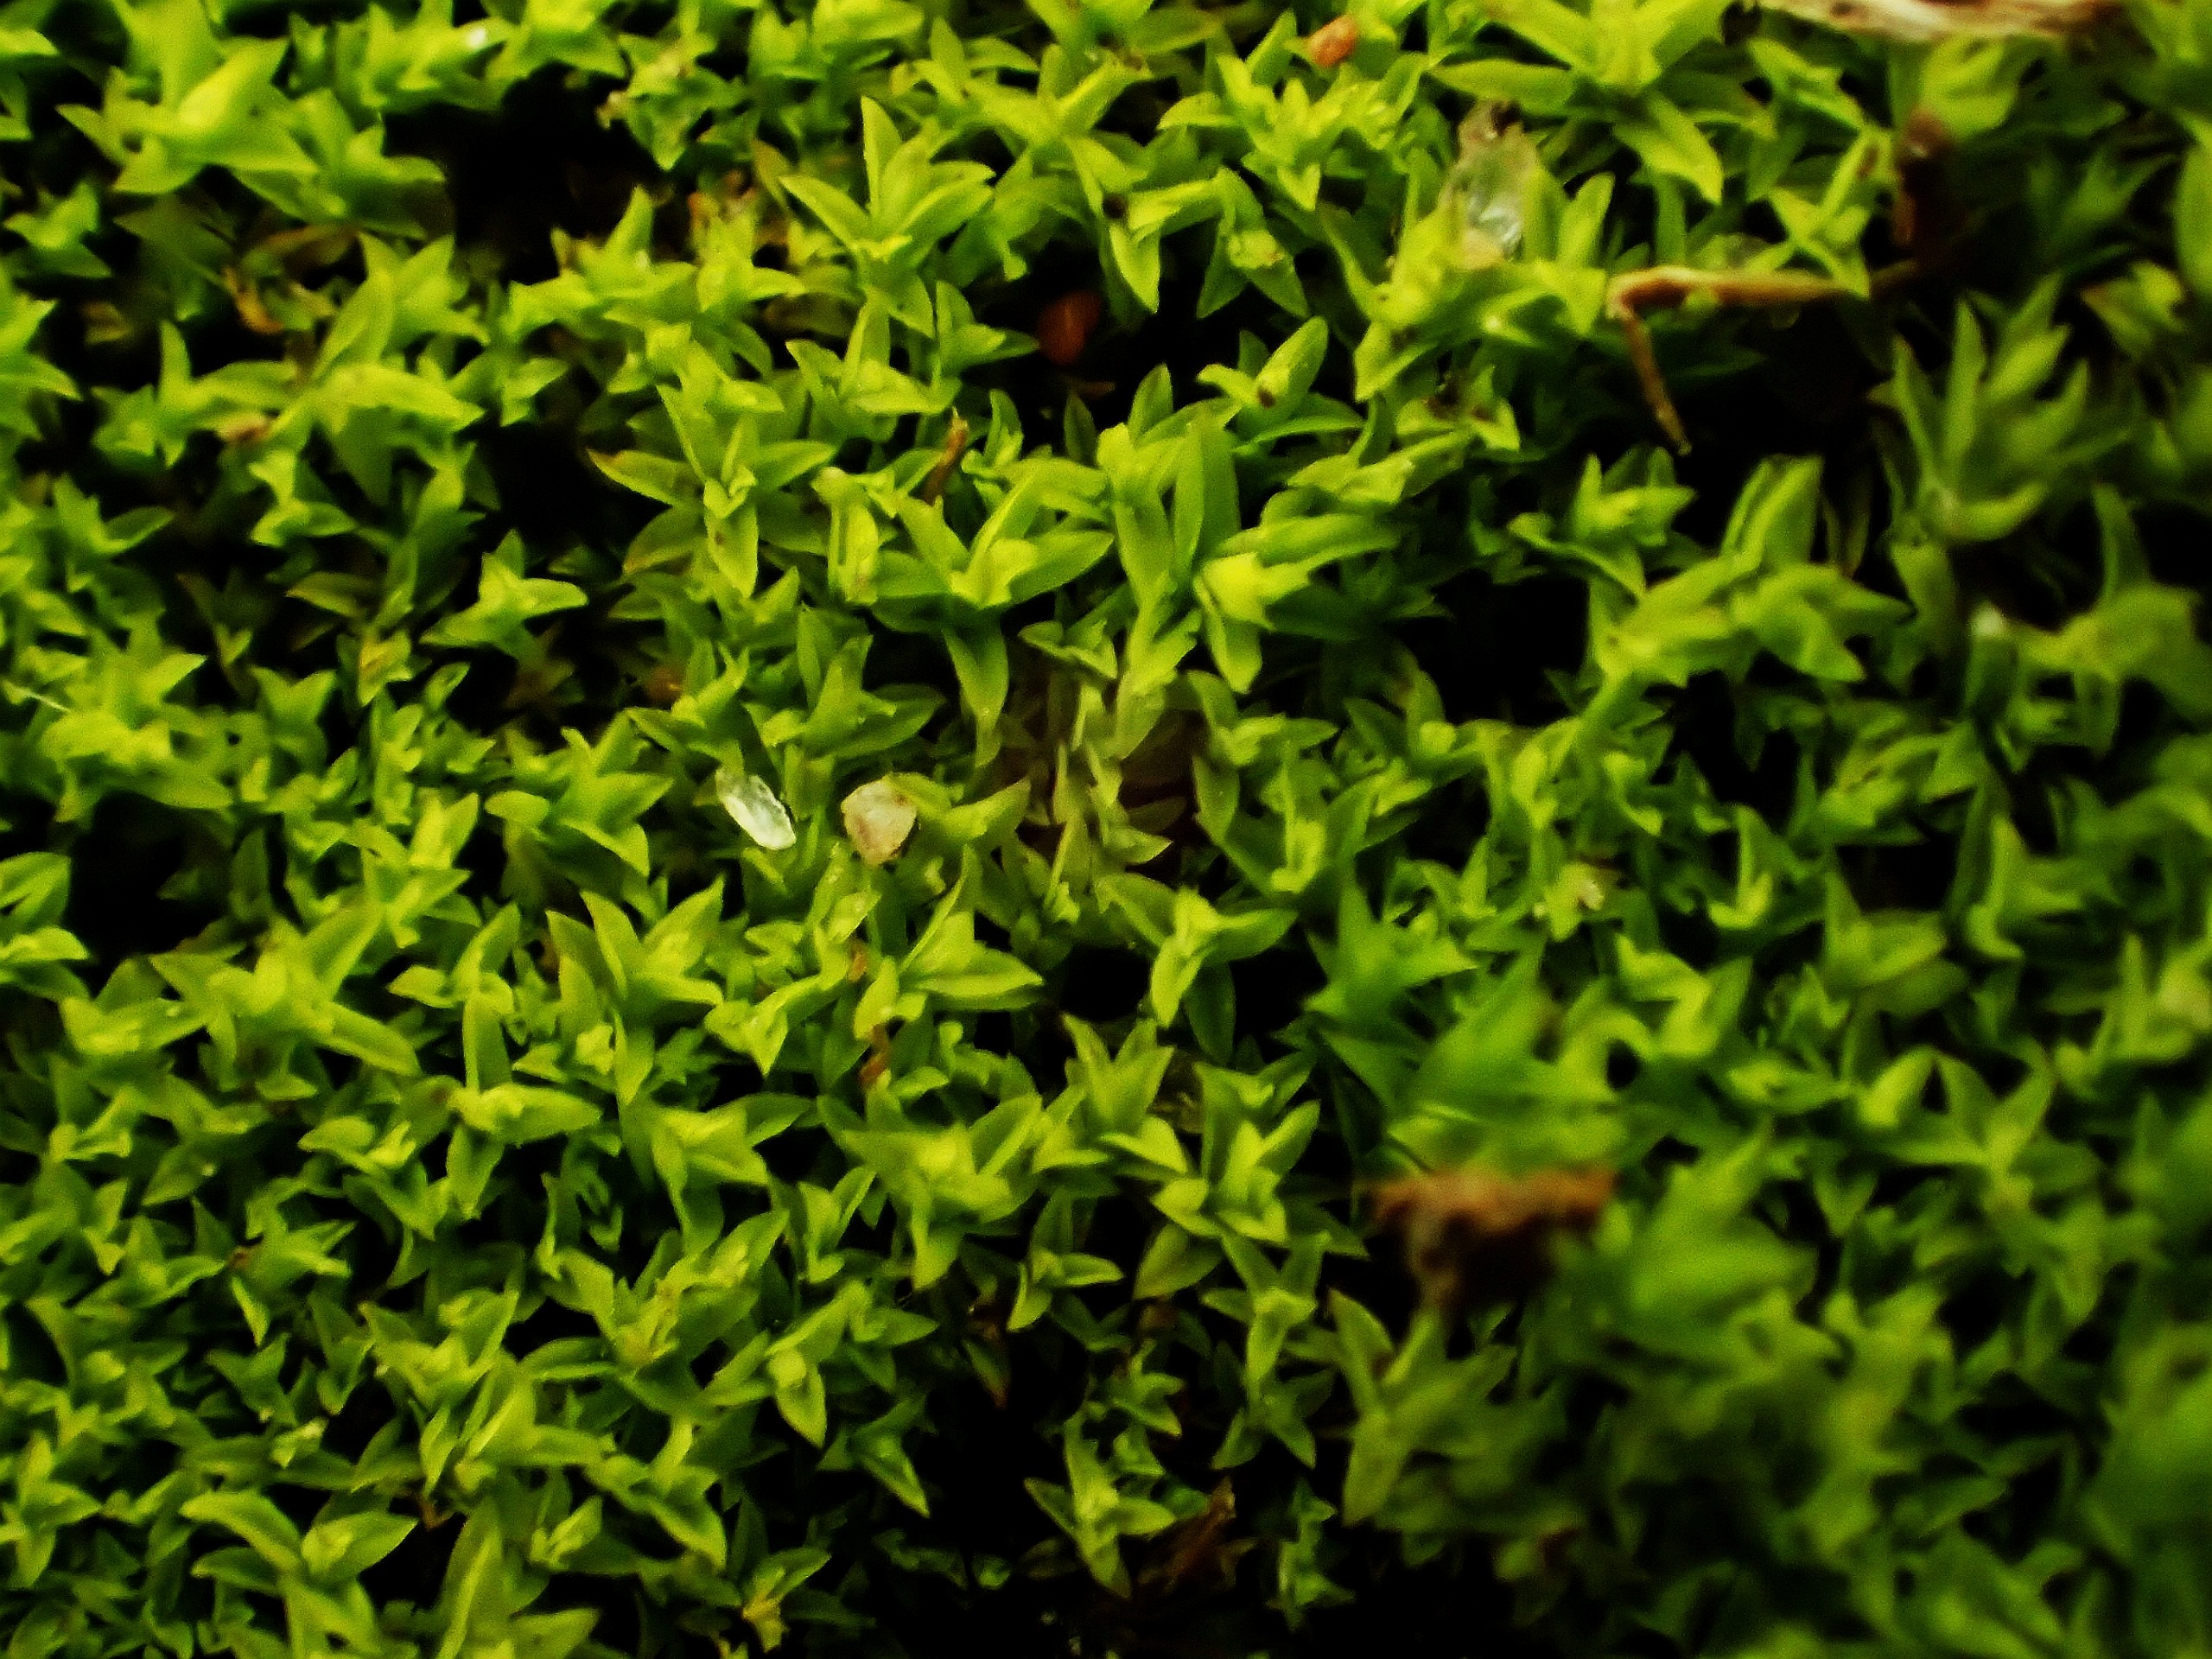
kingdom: Plantae
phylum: Bryophyta
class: Bryopsida
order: Pottiales
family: Pottiaceae
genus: Streblotrichum
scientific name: Streblotrichum convolutum
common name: Violet snohår
